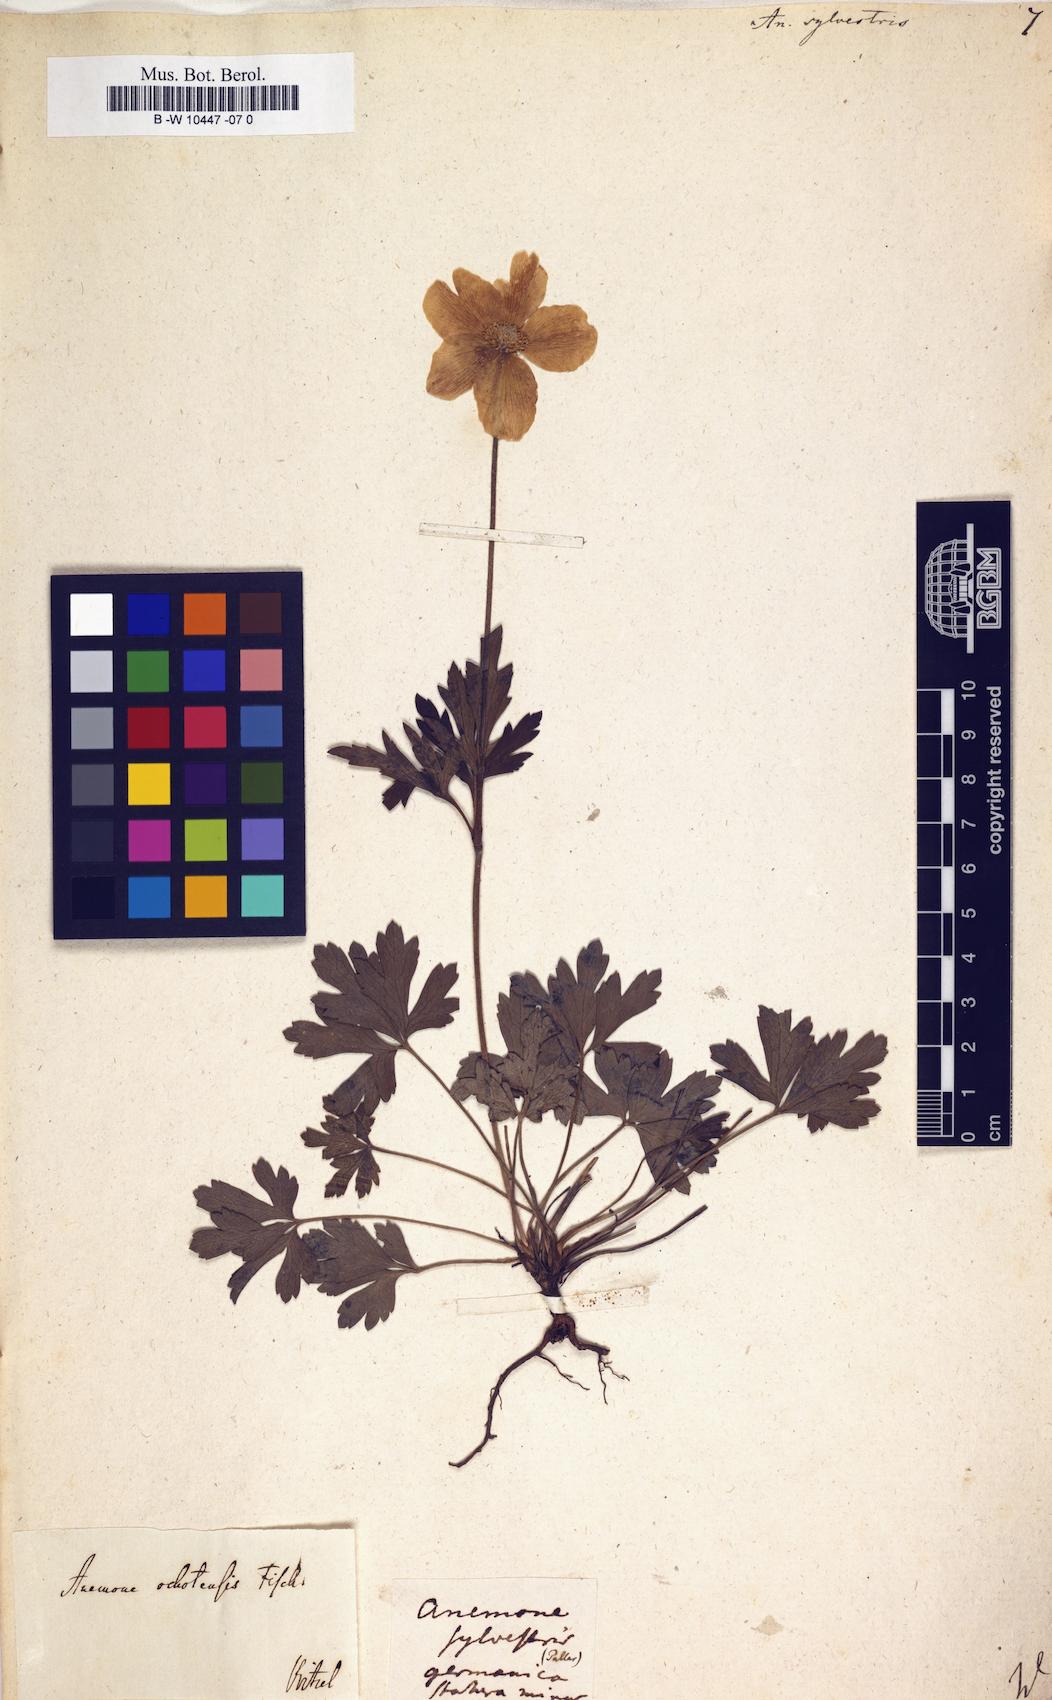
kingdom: Plantae
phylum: Tracheophyta
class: Magnoliopsida
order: Ranunculales
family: Ranunculaceae
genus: Anemone
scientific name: Anemone sylvestris
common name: Snowdrop anemone
